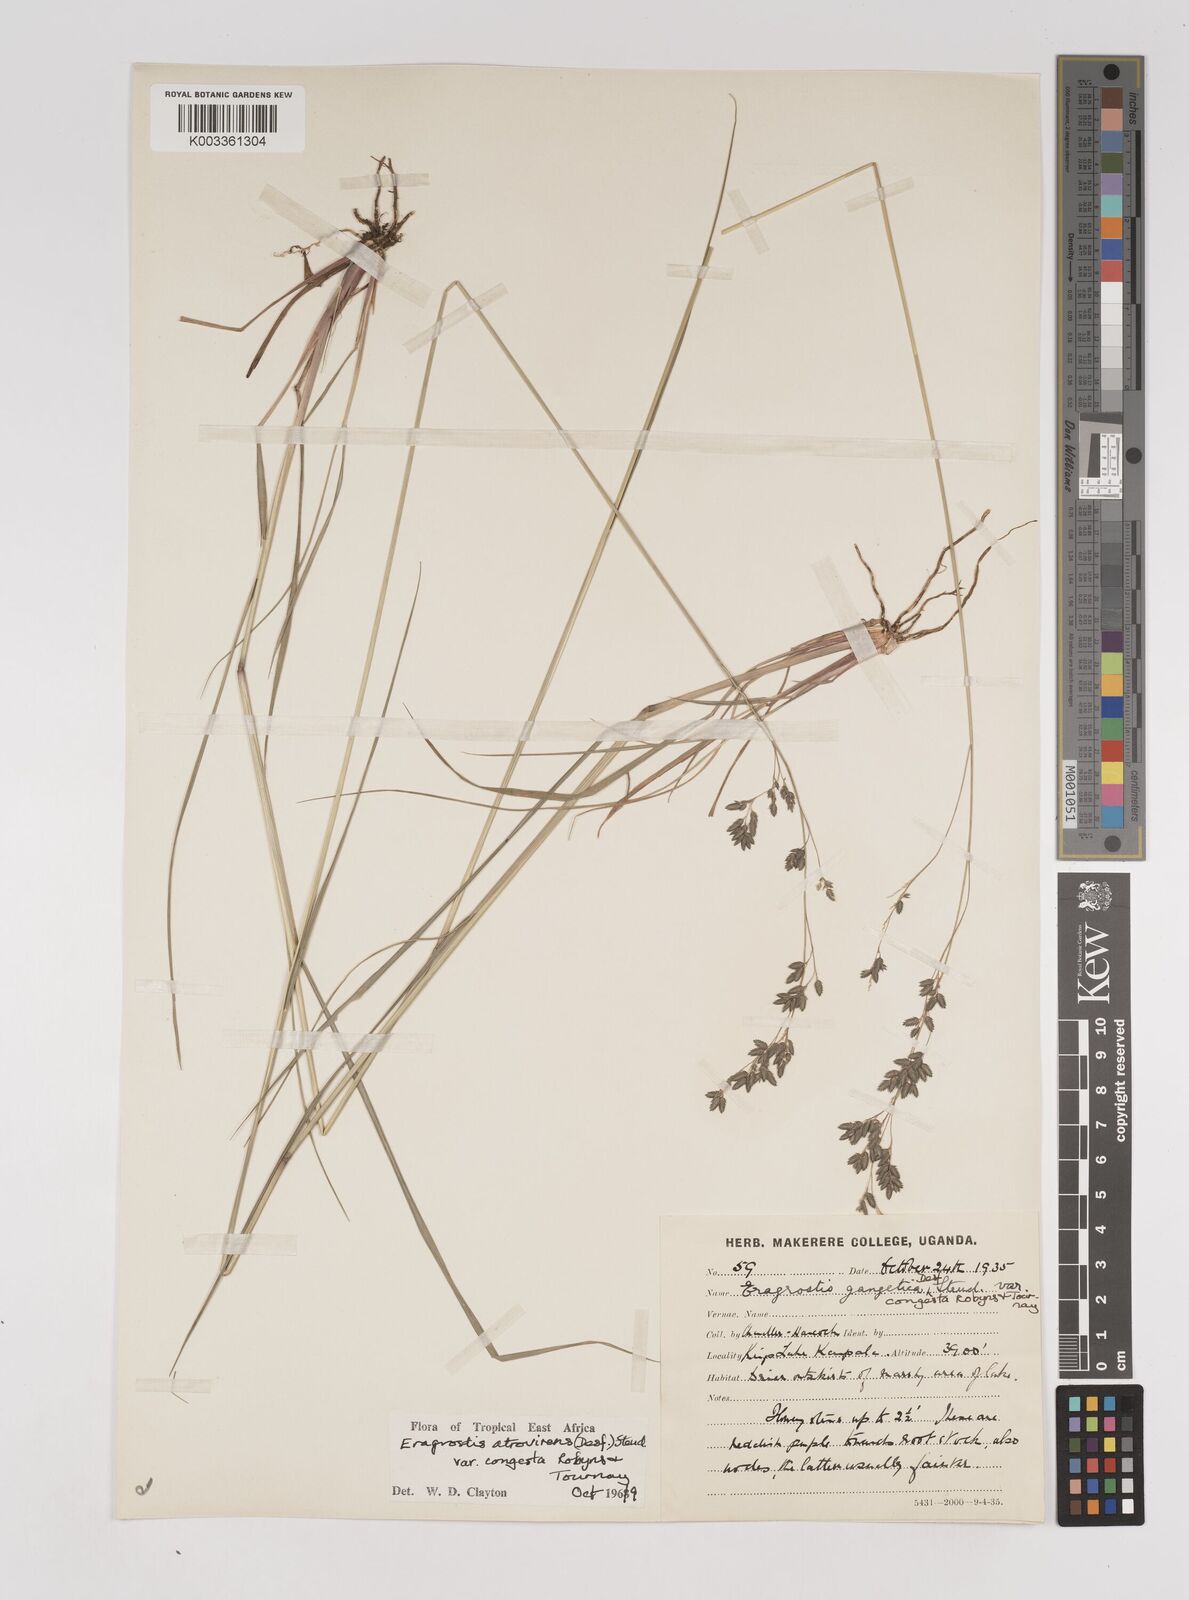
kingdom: Plantae
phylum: Tracheophyta
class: Liliopsida
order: Poales
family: Poaceae
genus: Eragrostis
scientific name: Eragrostis botryodes
